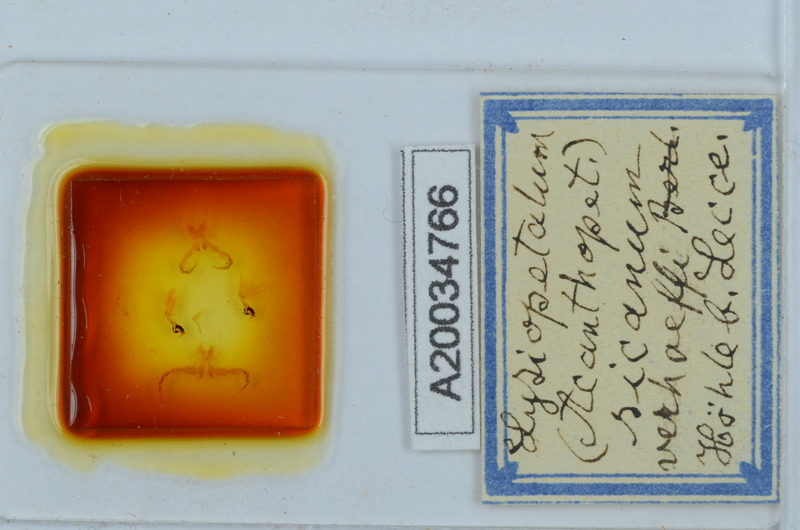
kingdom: Animalia
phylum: Arthropoda
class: Diplopoda
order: Callipodida
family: Schizopetalidae
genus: Acanthopetalum
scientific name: Acanthopetalum richii
